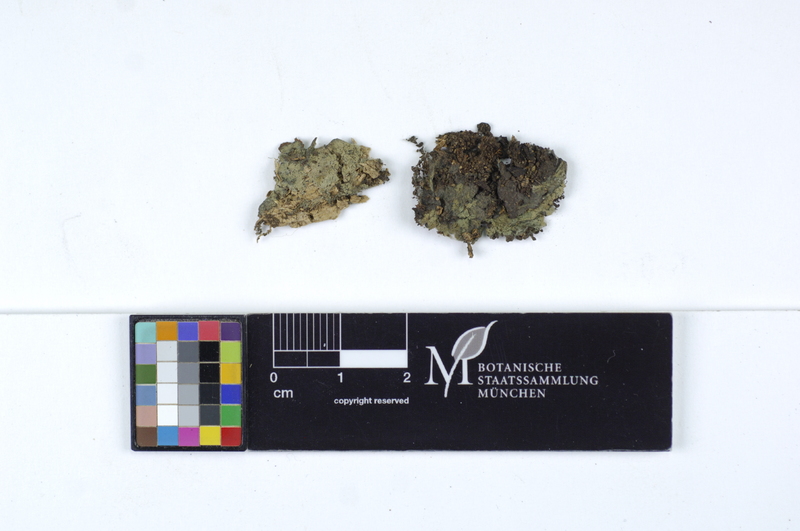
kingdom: Fungi
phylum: Basidiomycota
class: Agaricomycetes
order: Atheliales
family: Atheliaceae
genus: Byssocorticium
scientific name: Byssocorticium atrovirens
